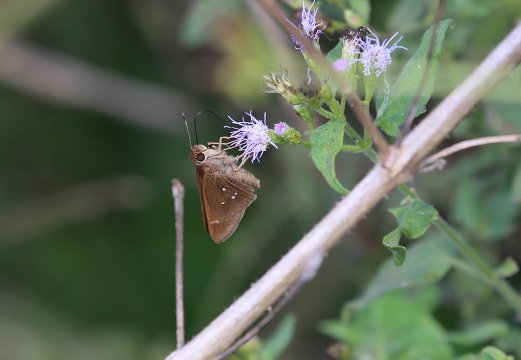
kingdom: Animalia
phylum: Arthropoda
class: Insecta
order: Lepidoptera
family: Hesperiidae
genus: Decinea
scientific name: Decinea percosius
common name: Double-dotted Skipper
